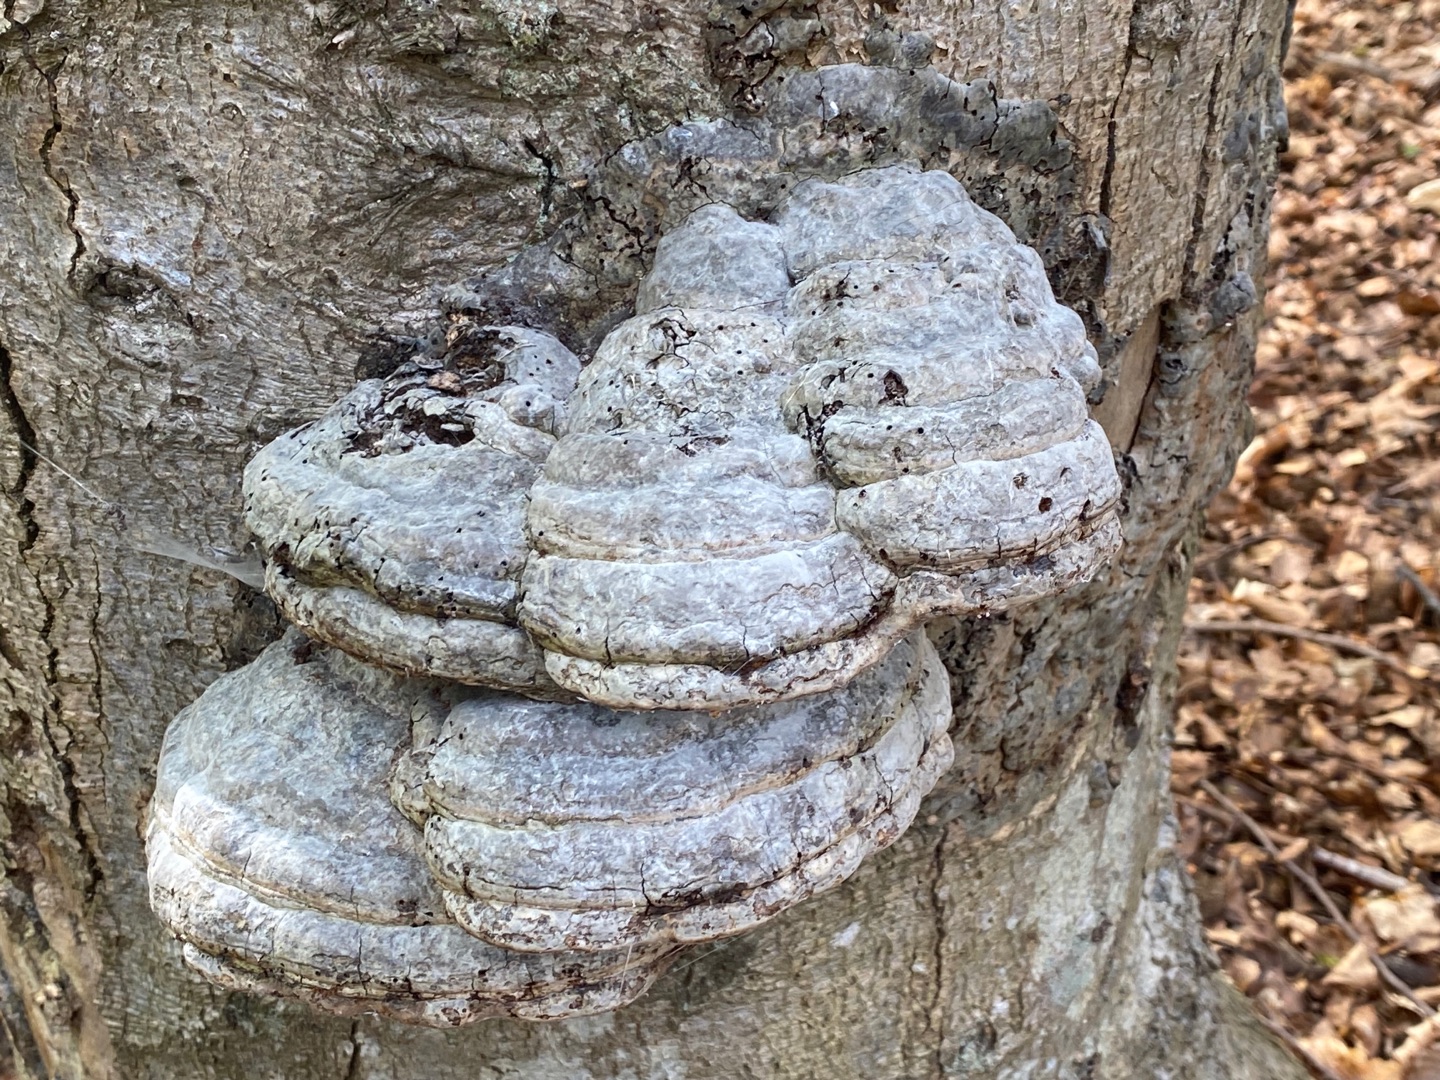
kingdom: Fungi
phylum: Basidiomycota
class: Agaricomycetes
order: Polyporales
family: Polyporaceae
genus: Fomes
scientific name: Fomes fomentarius
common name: Tøndersvamp
